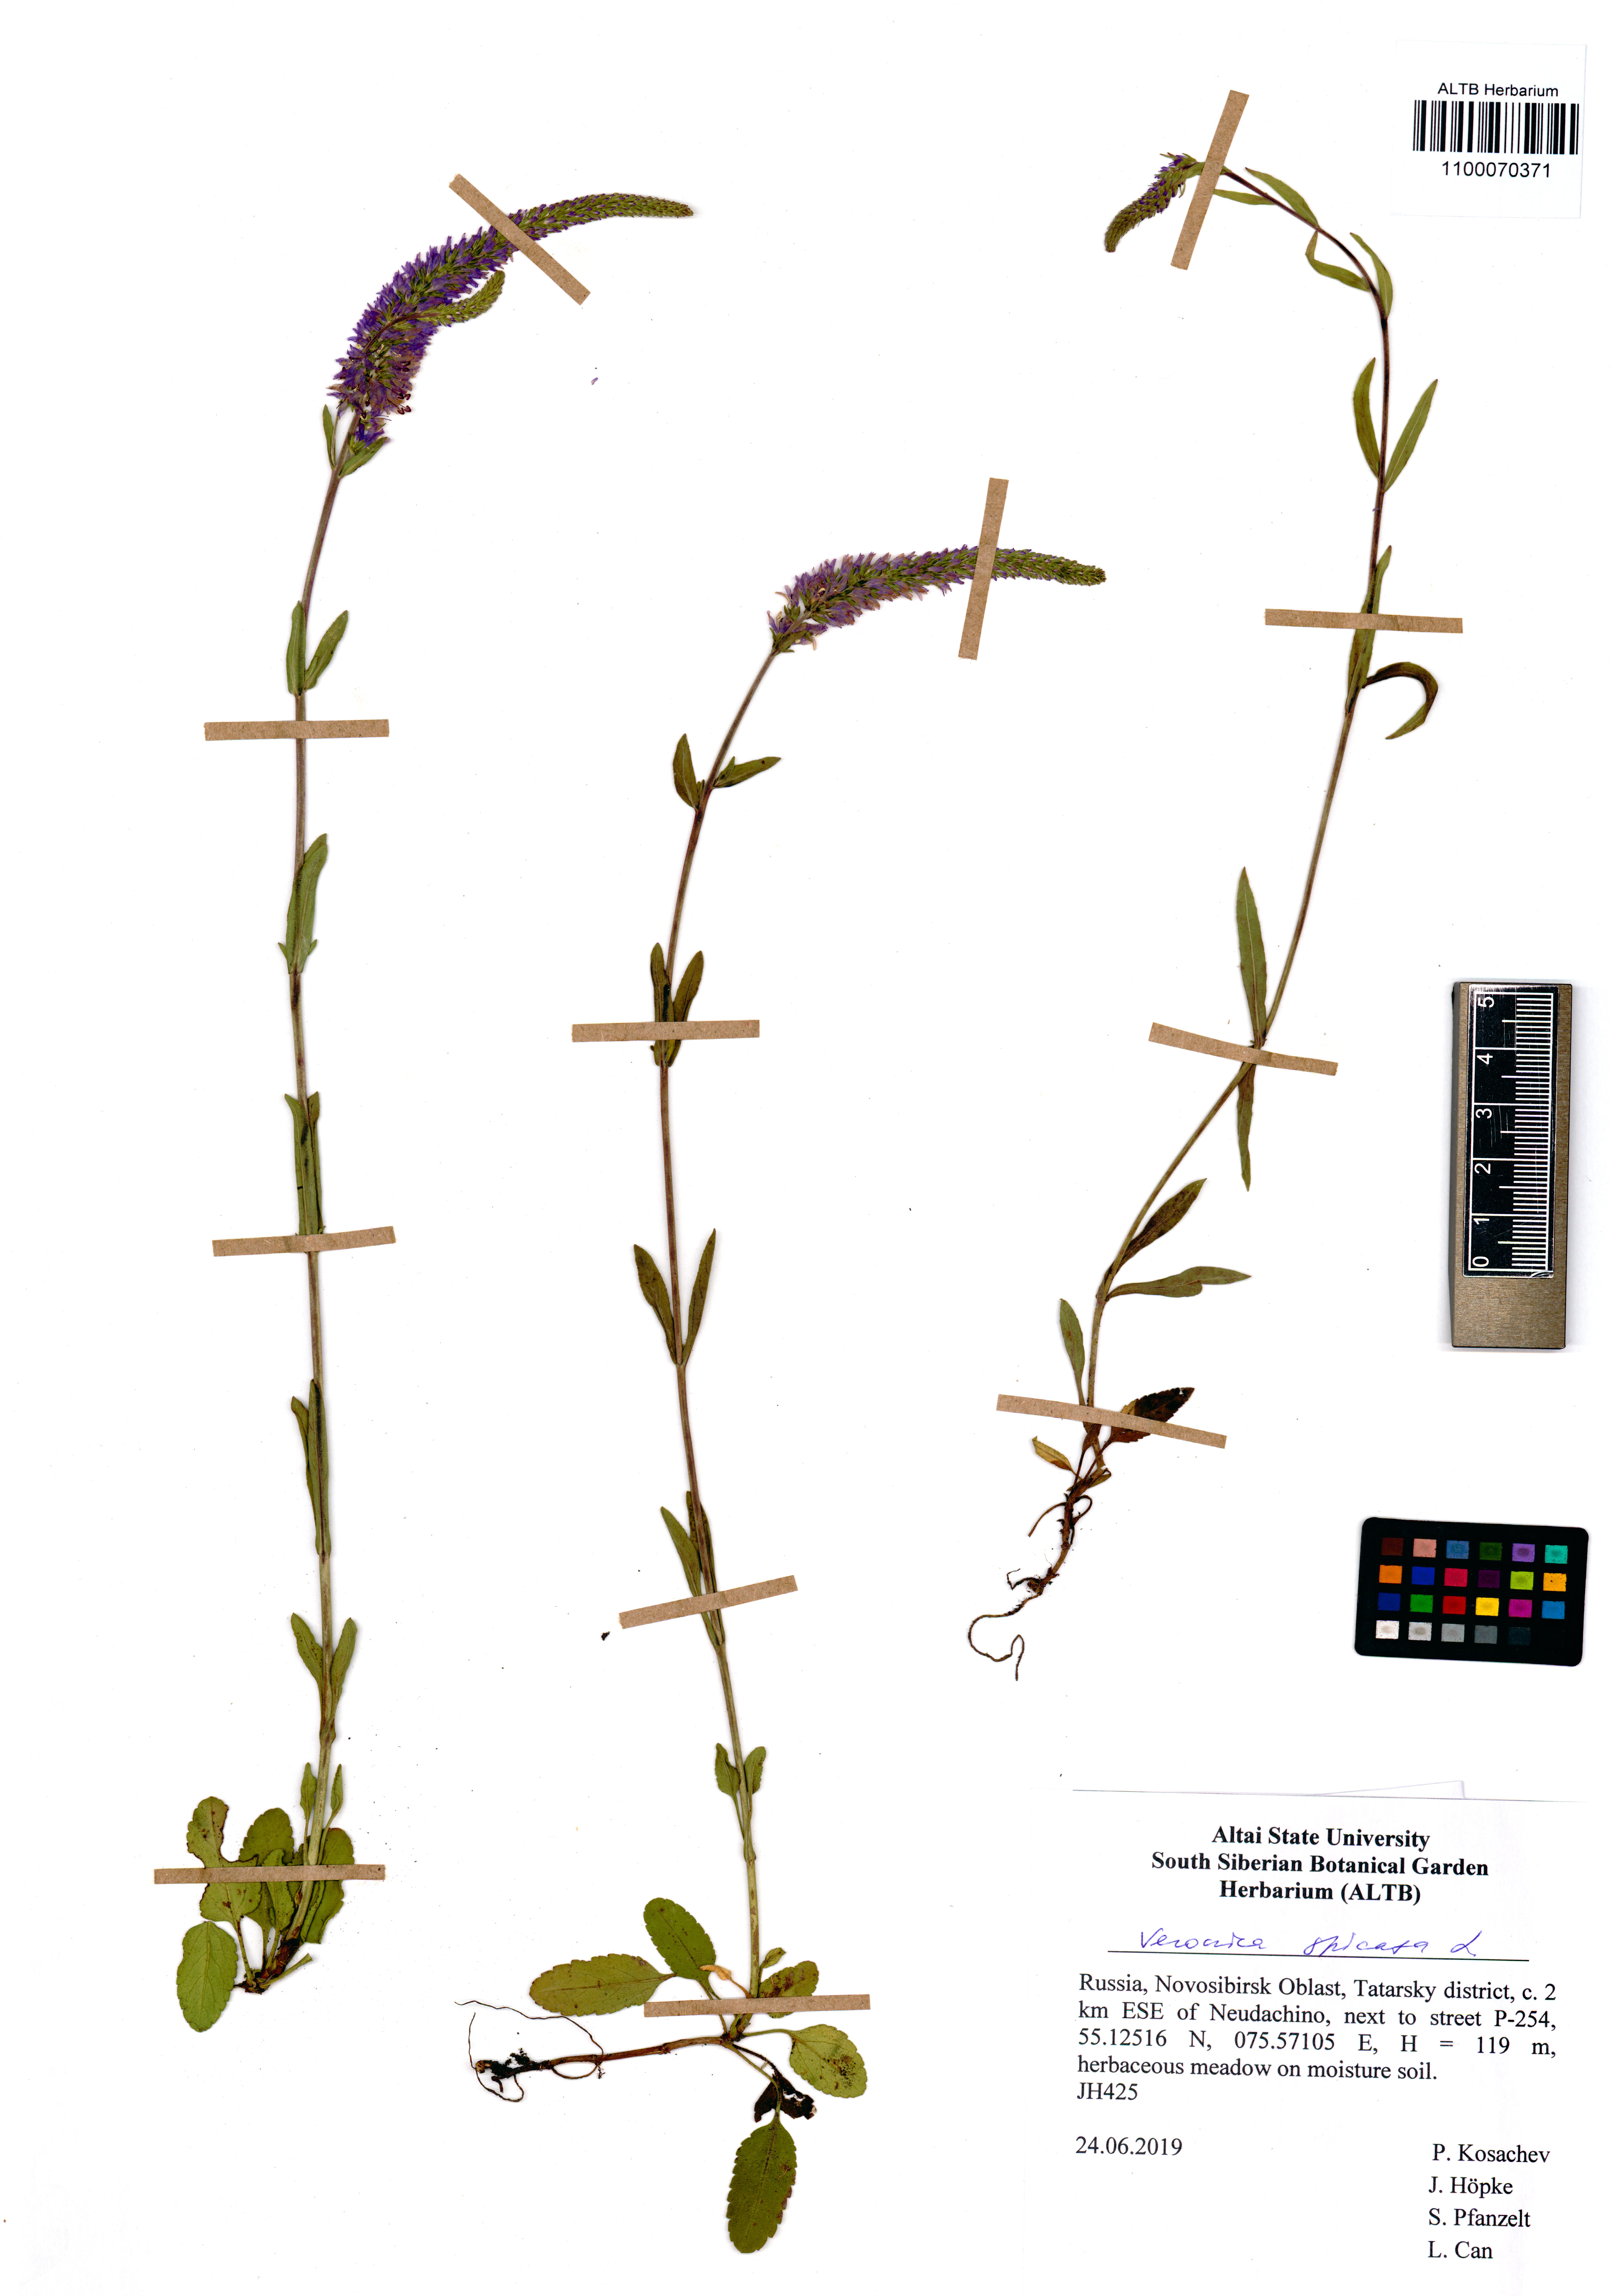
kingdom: Plantae
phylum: Tracheophyta
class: Magnoliopsida
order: Lamiales
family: Plantaginaceae
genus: Veronica
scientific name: Veronica spicata
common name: Spiked speedwell
